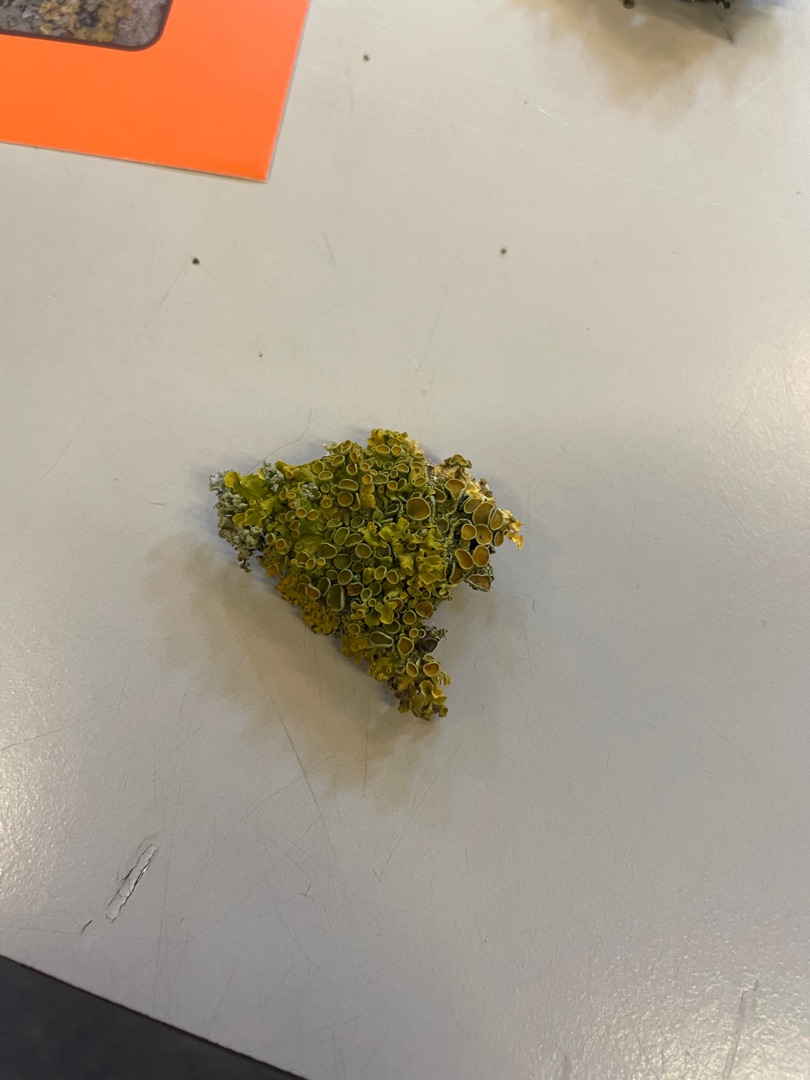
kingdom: Fungi
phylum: Ascomycota
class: Lecanoromycetes
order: Teloschistales
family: Teloschistaceae
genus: Xanthoria
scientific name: Xanthoria parietina
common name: Almindelig væggelav
